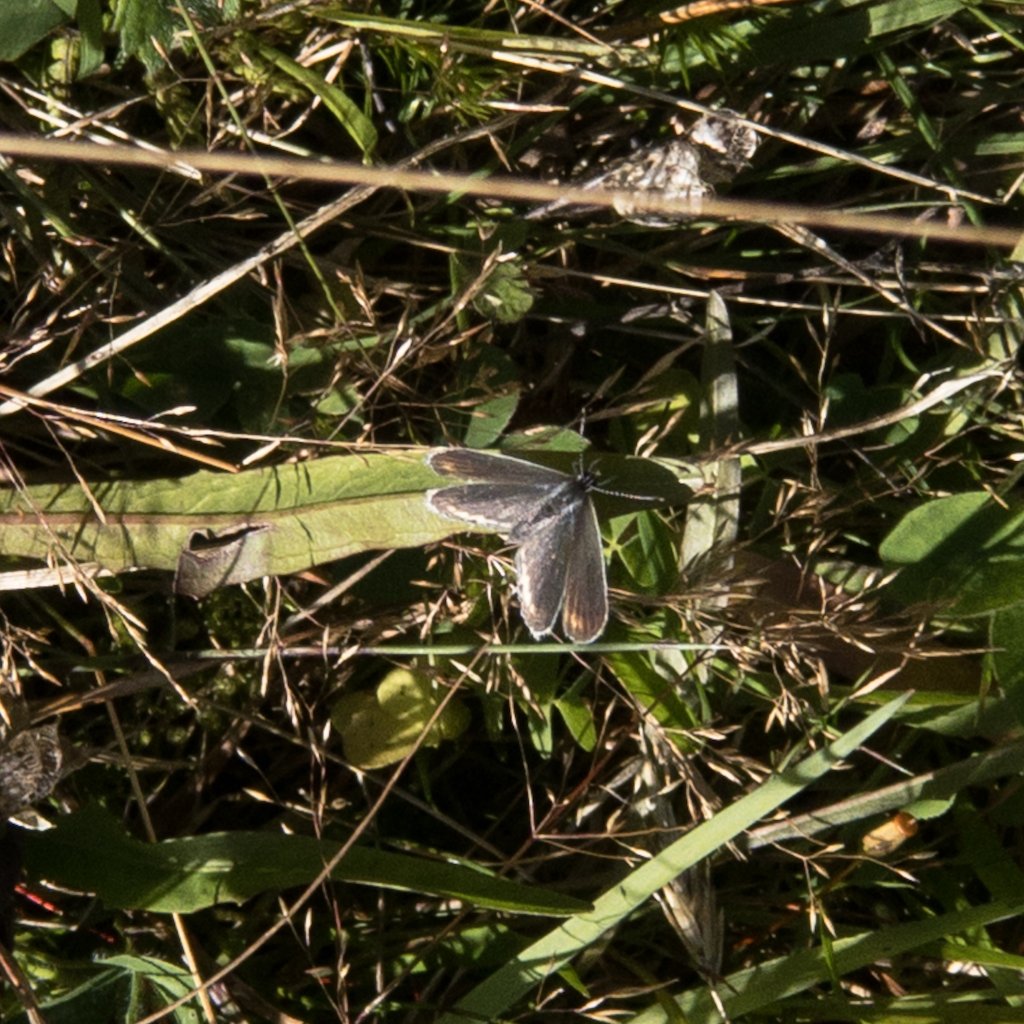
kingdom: Animalia
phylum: Arthropoda
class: Insecta
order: Lepidoptera
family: Lycaenidae
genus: Elkalyce
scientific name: Elkalyce comyntas
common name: Eastern Tailed-Blue
